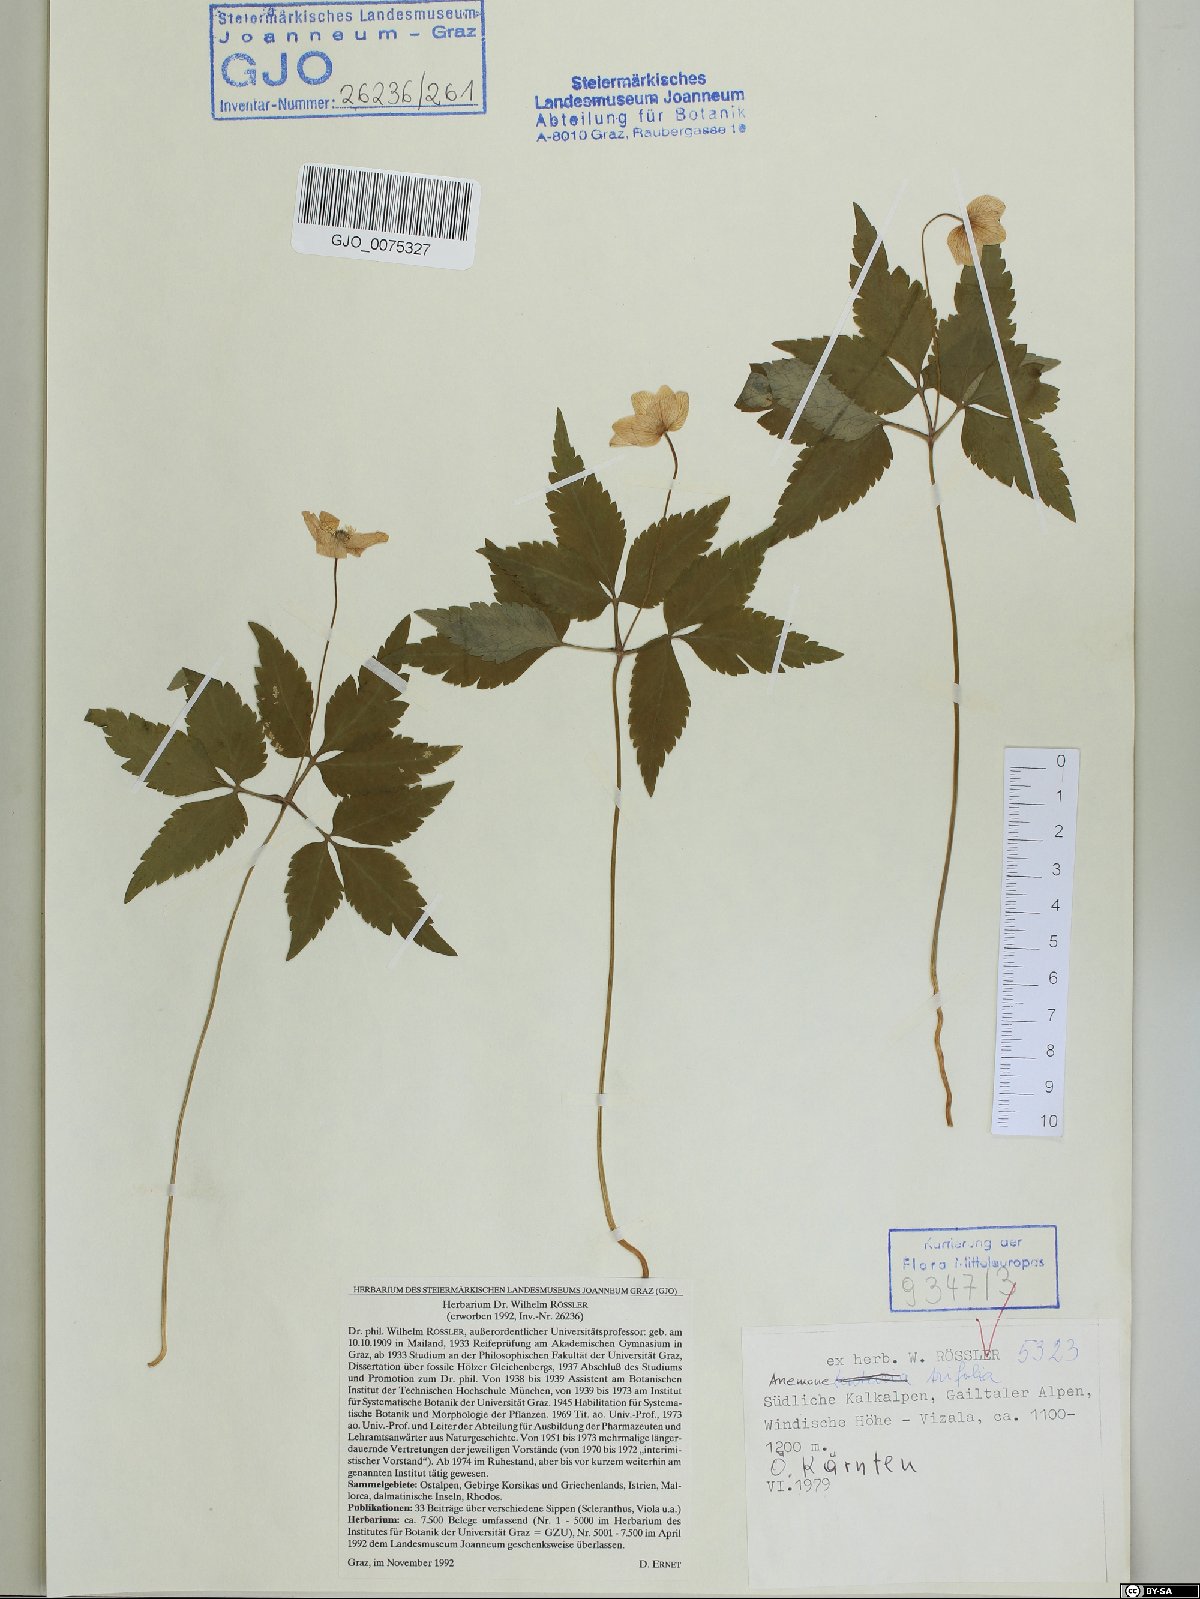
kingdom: Plantae
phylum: Tracheophyta
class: Magnoliopsida
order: Ranunculales
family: Ranunculaceae
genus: Anemone
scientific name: Anemone trifolia
